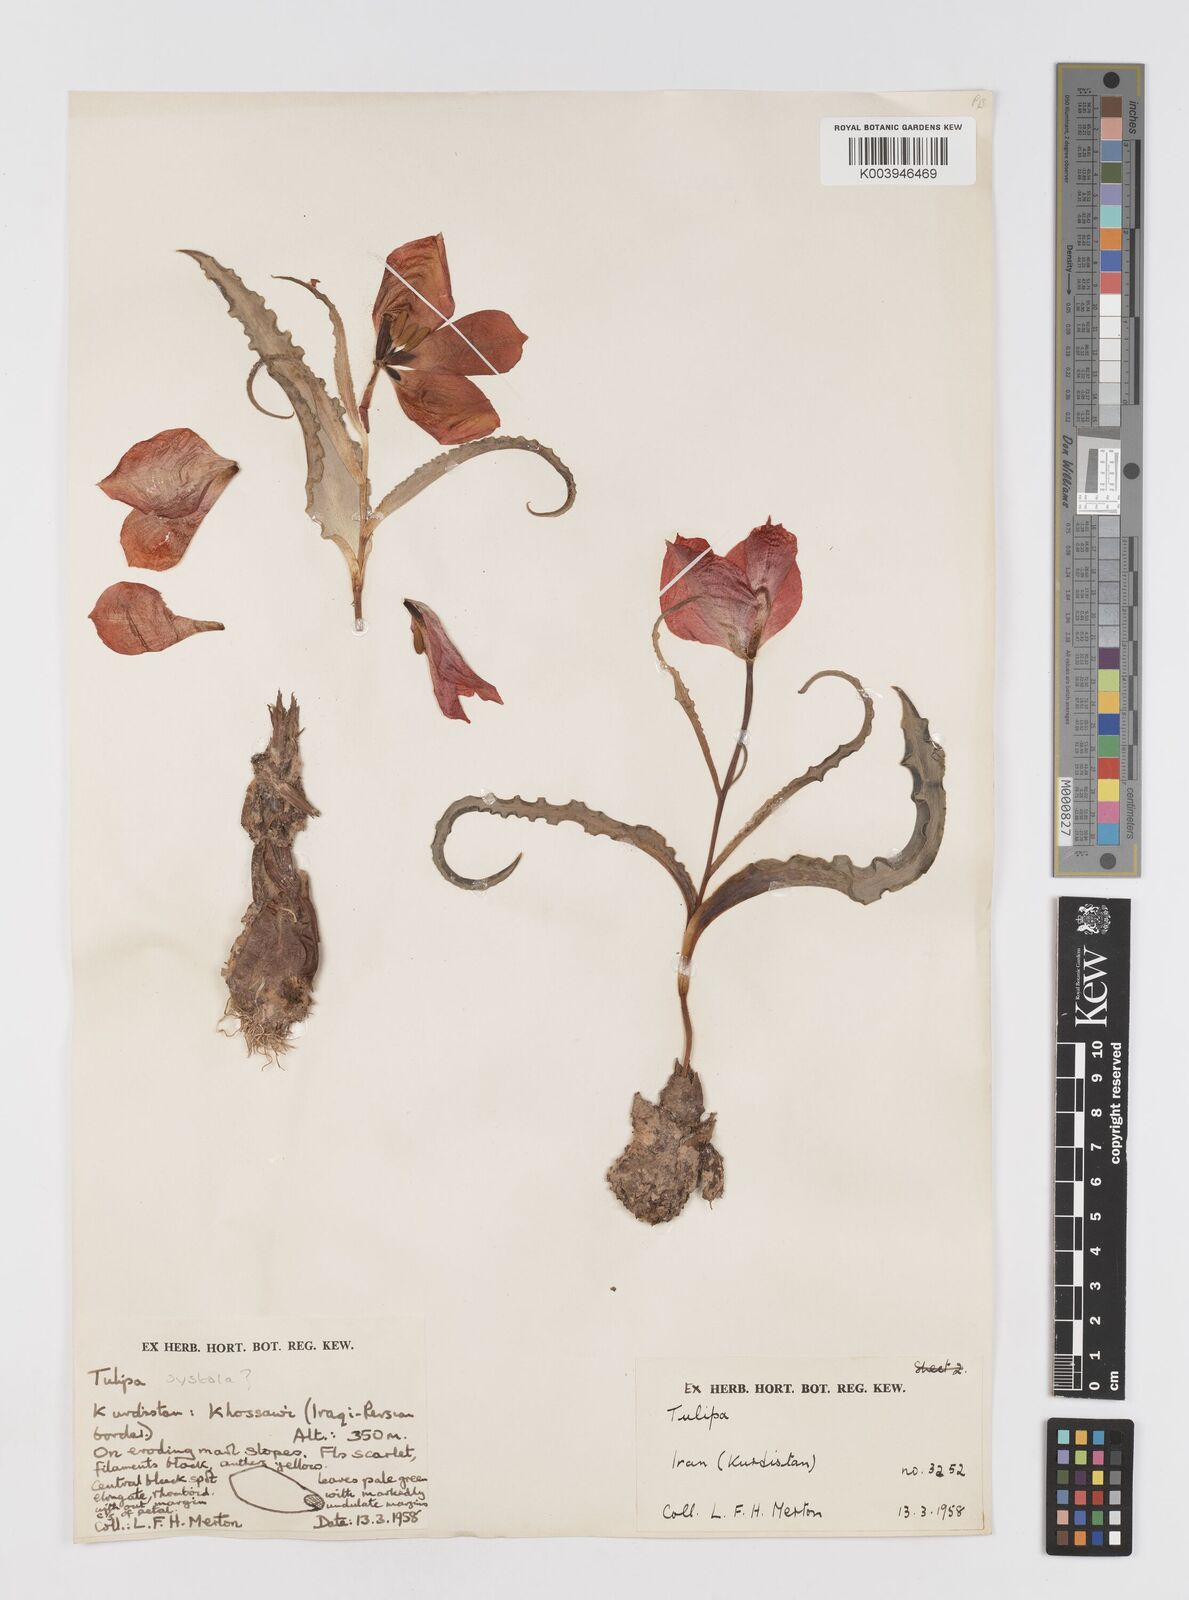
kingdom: Plantae
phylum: Tracheophyta
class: Liliopsida
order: Liliales
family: Liliaceae
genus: Tulipa
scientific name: Tulipa
